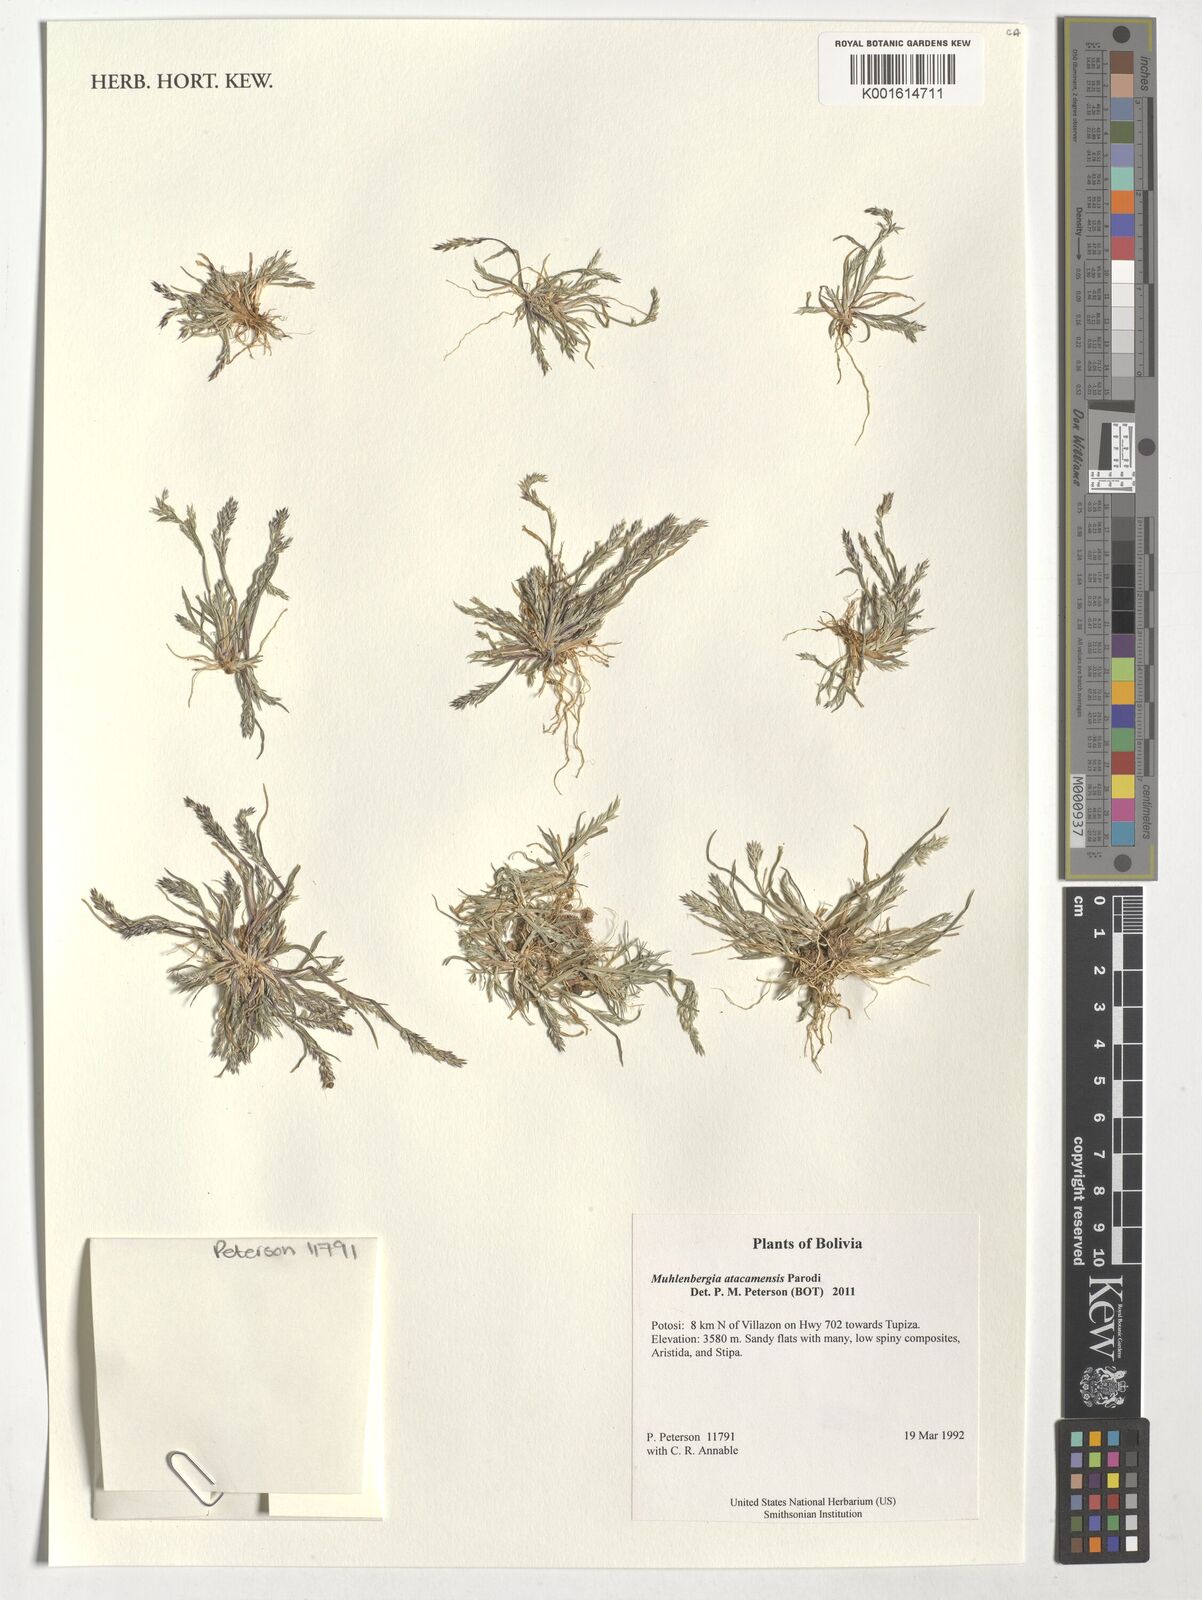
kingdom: Plantae
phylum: Tracheophyta
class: Liliopsida
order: Poales
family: Poaceae
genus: Muhlenbergia
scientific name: Muhlenbergia atacamensis
